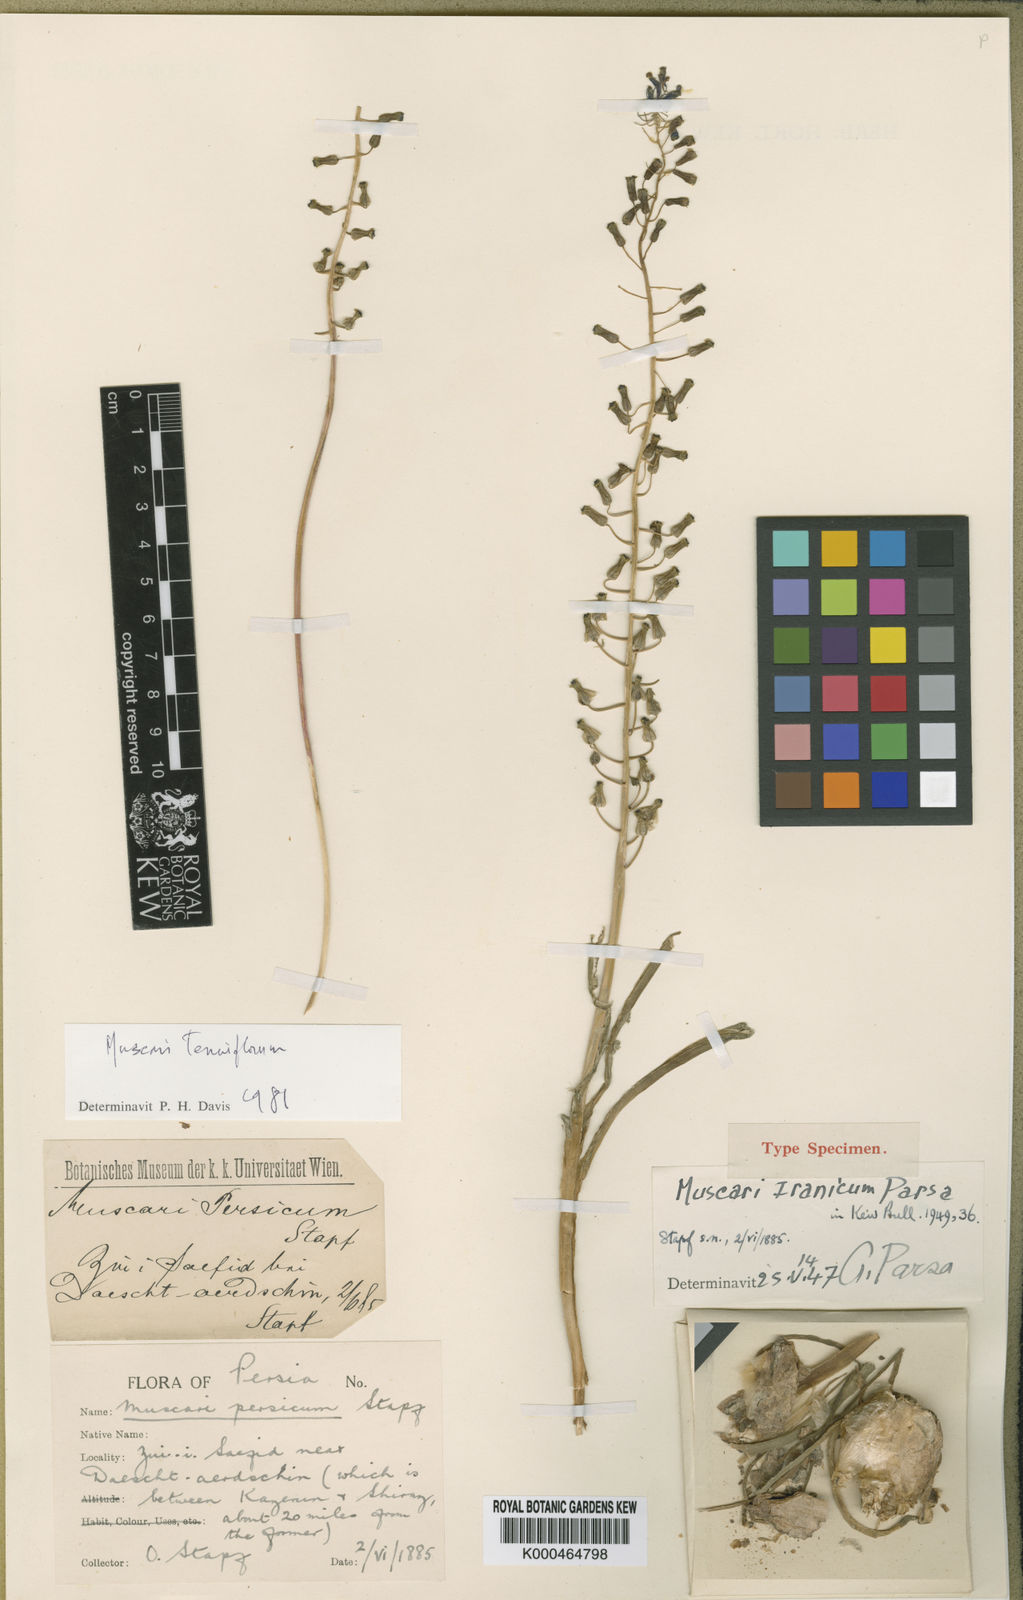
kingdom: Plantae
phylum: Tracheophyta
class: Liliopsida
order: Asparagales
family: Asparagaceae
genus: Muscari
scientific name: Muscari tenuiflorum
